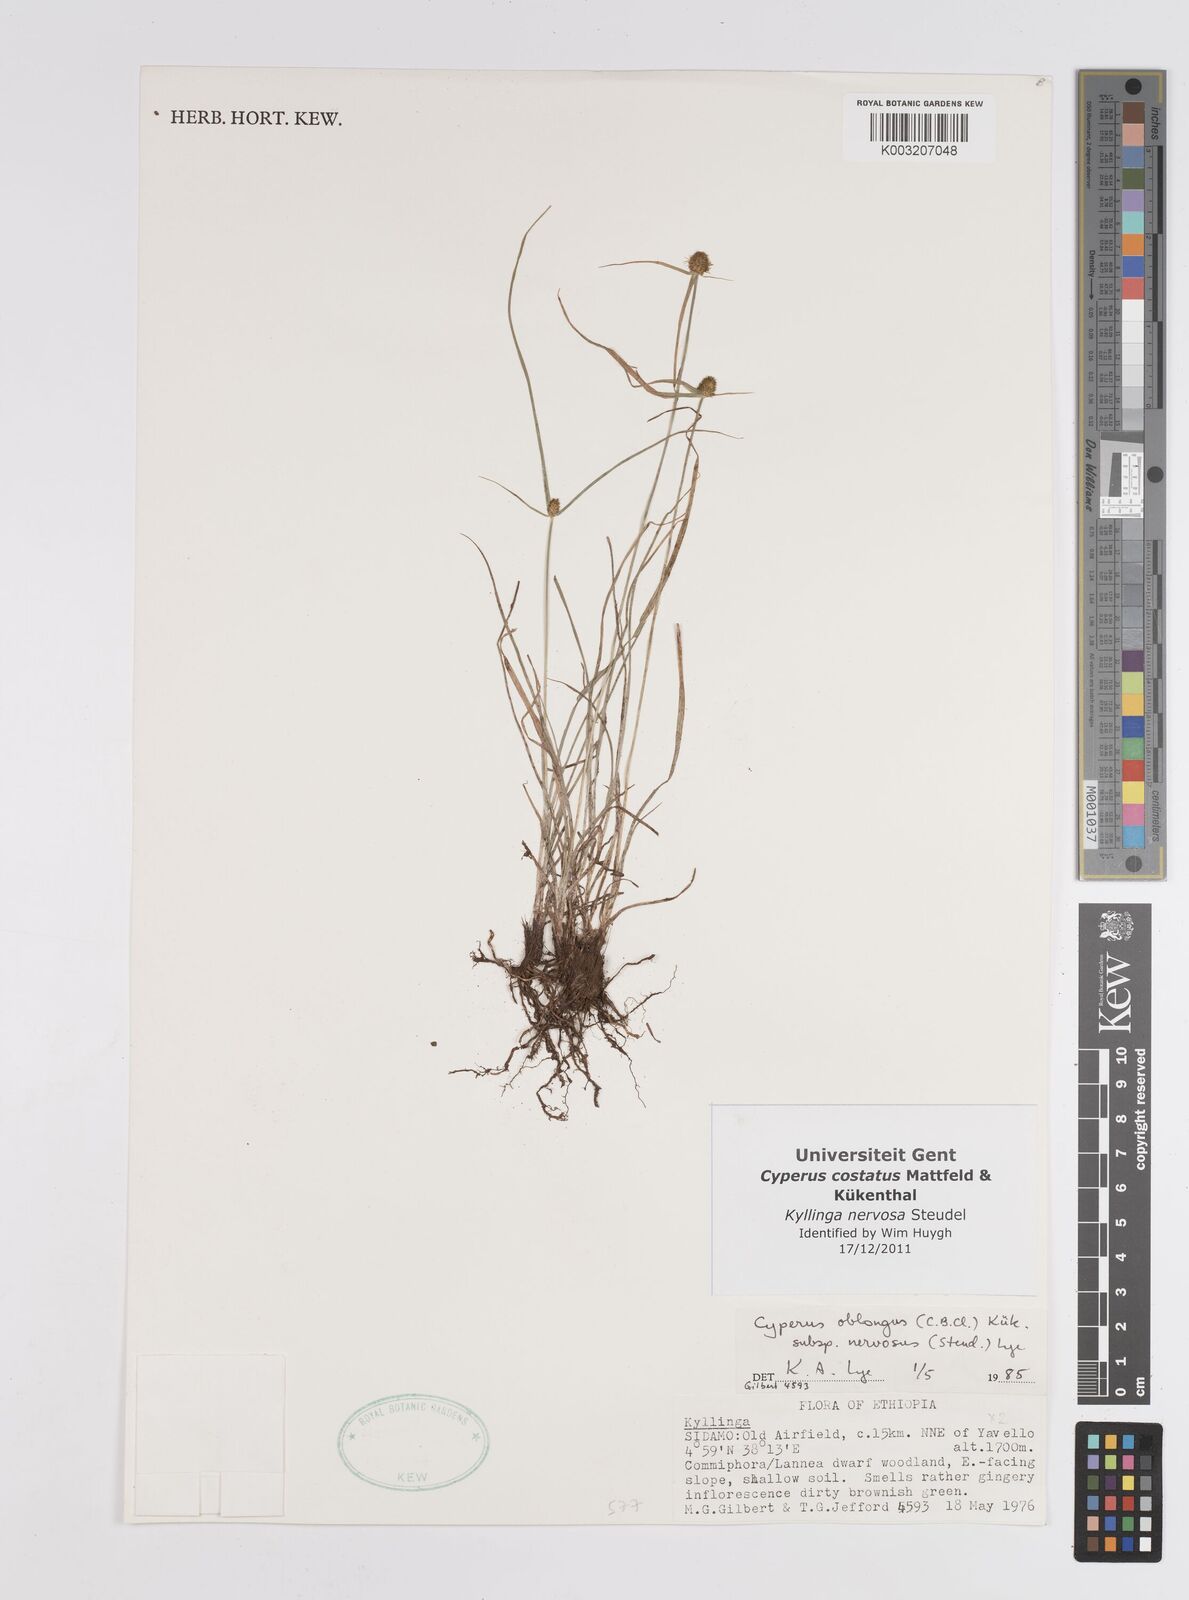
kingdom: Plantae
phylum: Tracheophyta
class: Liliopsida
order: Poales
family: Cyperaceae
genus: Cyperus
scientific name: Cyperus costatus
